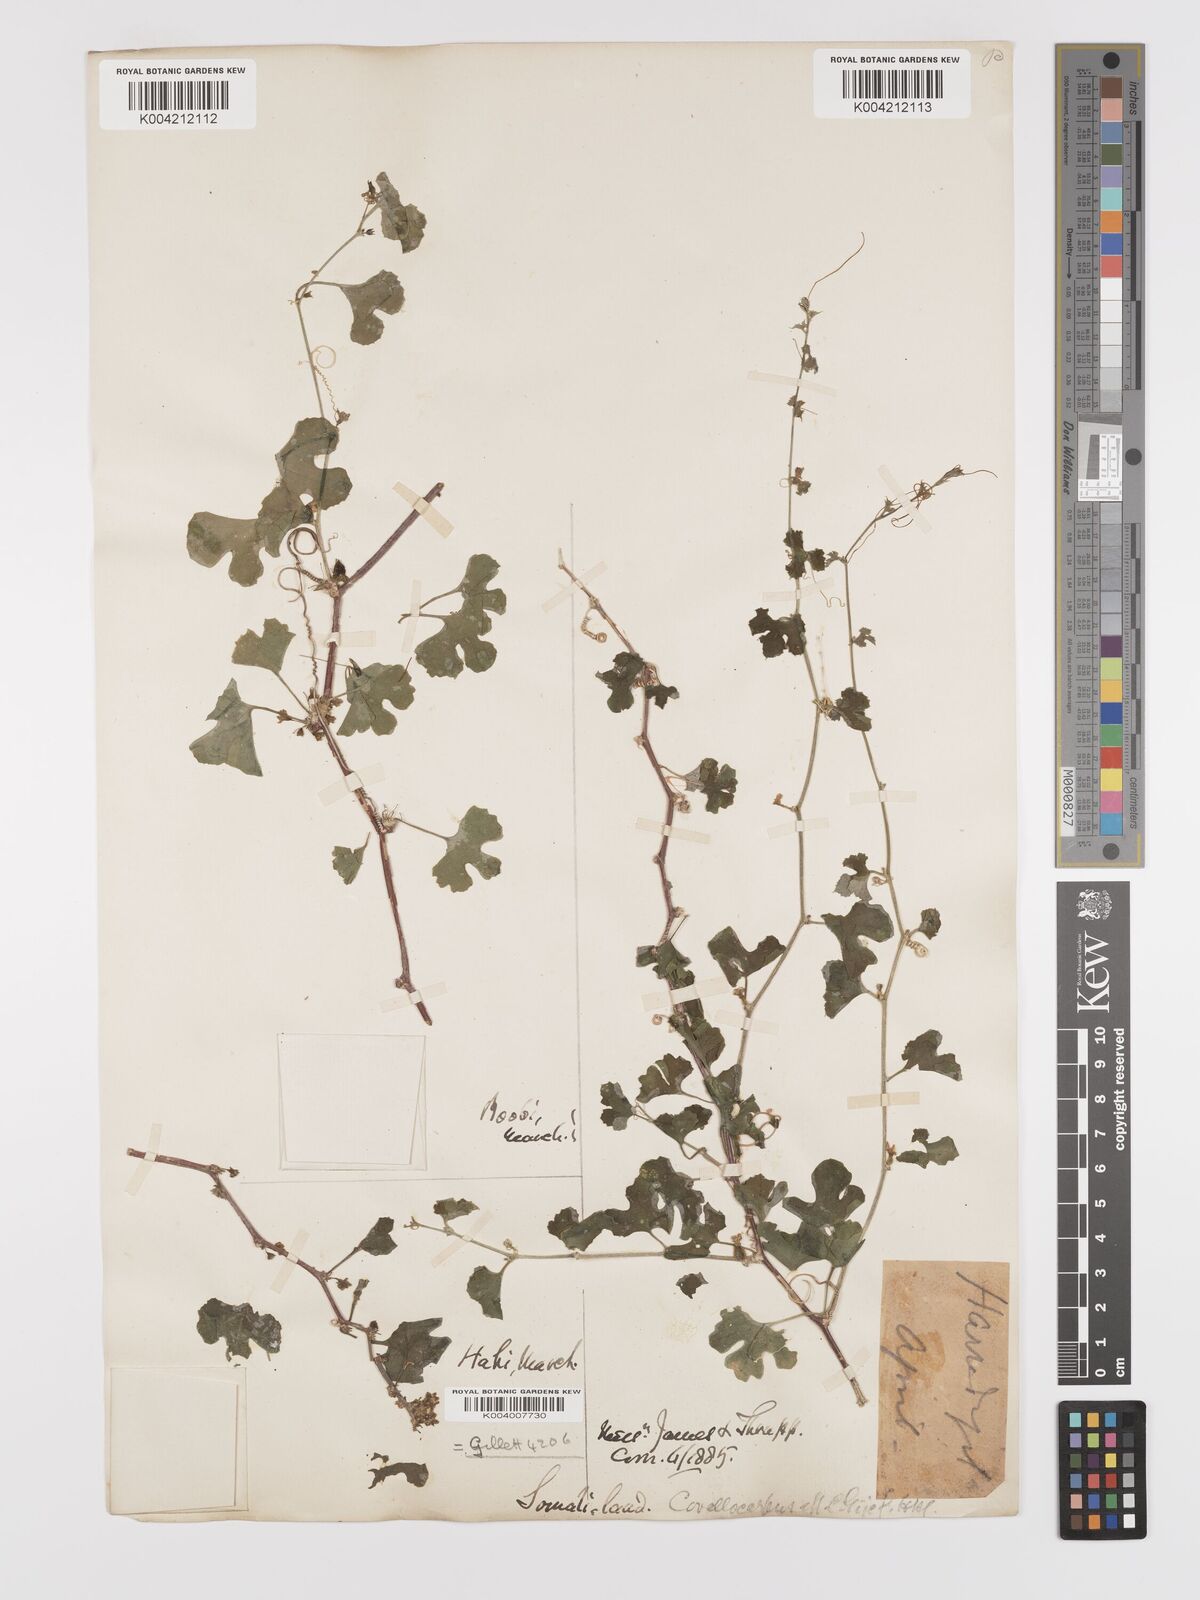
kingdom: Plantae
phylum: Tracheophyta
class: Magnoliopsida
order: Cucurbitales
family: Cucurbitaceae
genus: Kedrostis
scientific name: Kedrostis gijef
